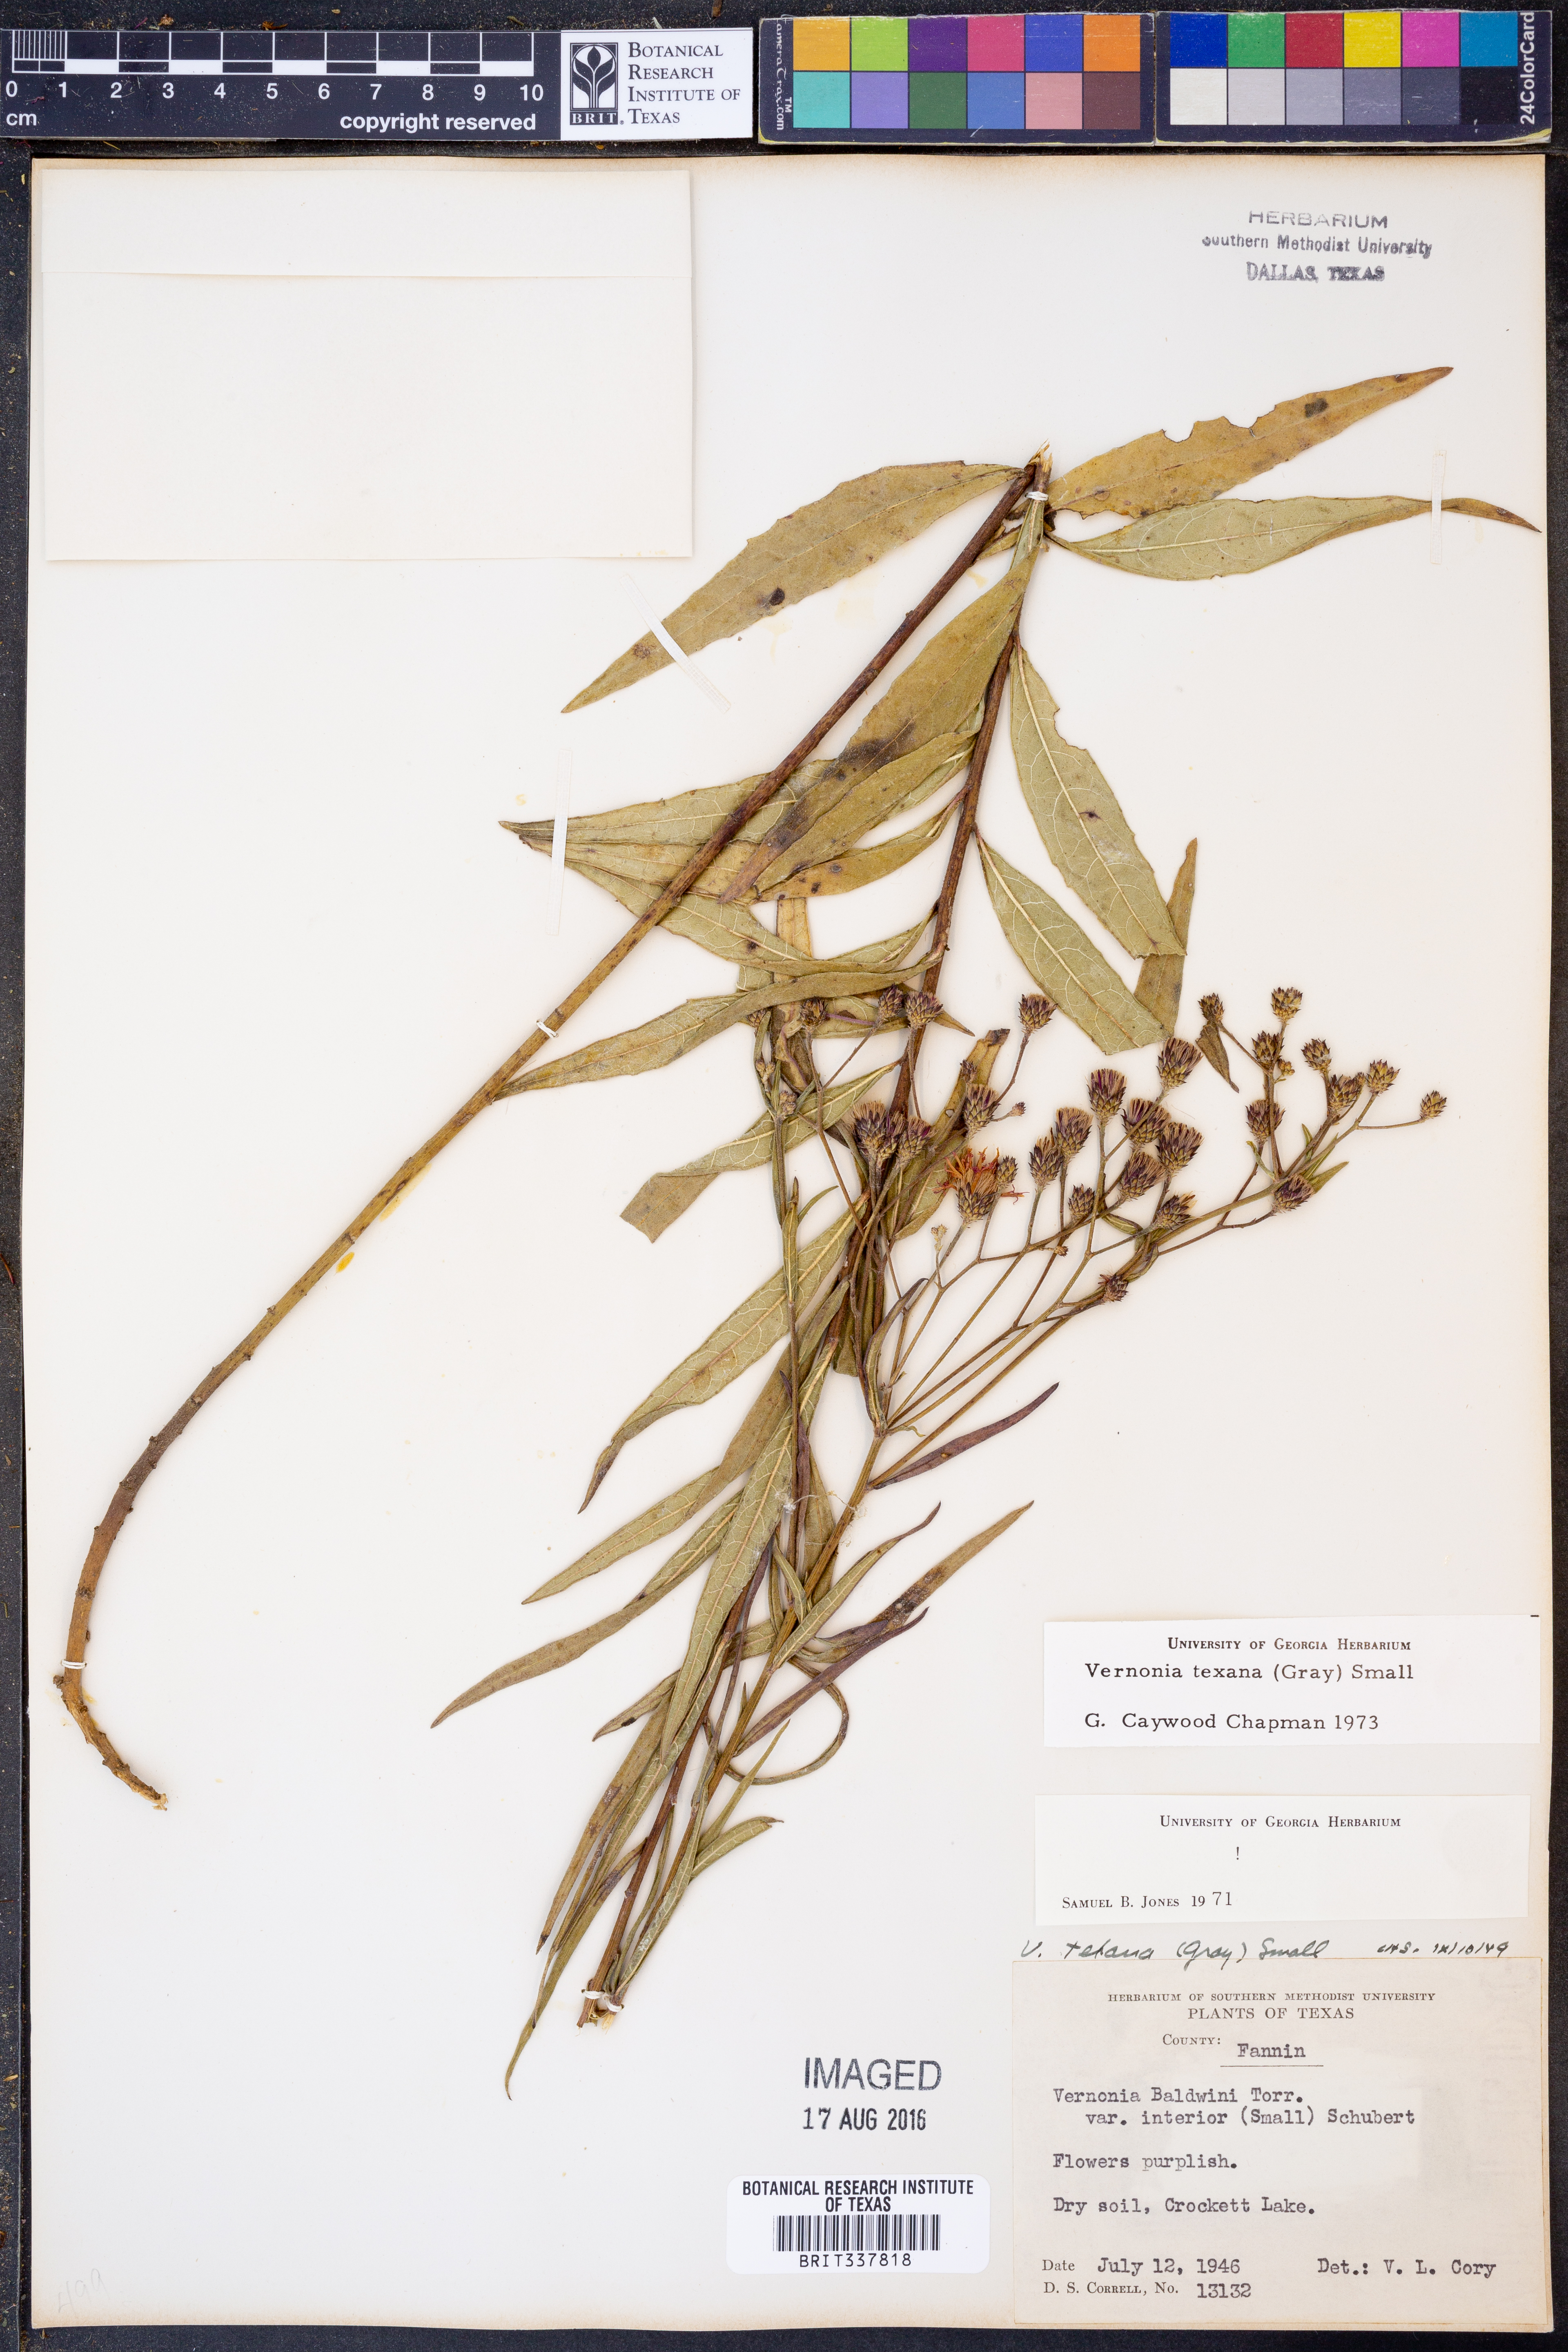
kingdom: Plantae
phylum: Tracheophyta
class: Magnoliopsida
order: Asterales
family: Asteraceae
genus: Vernonia
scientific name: Vernonia texana
